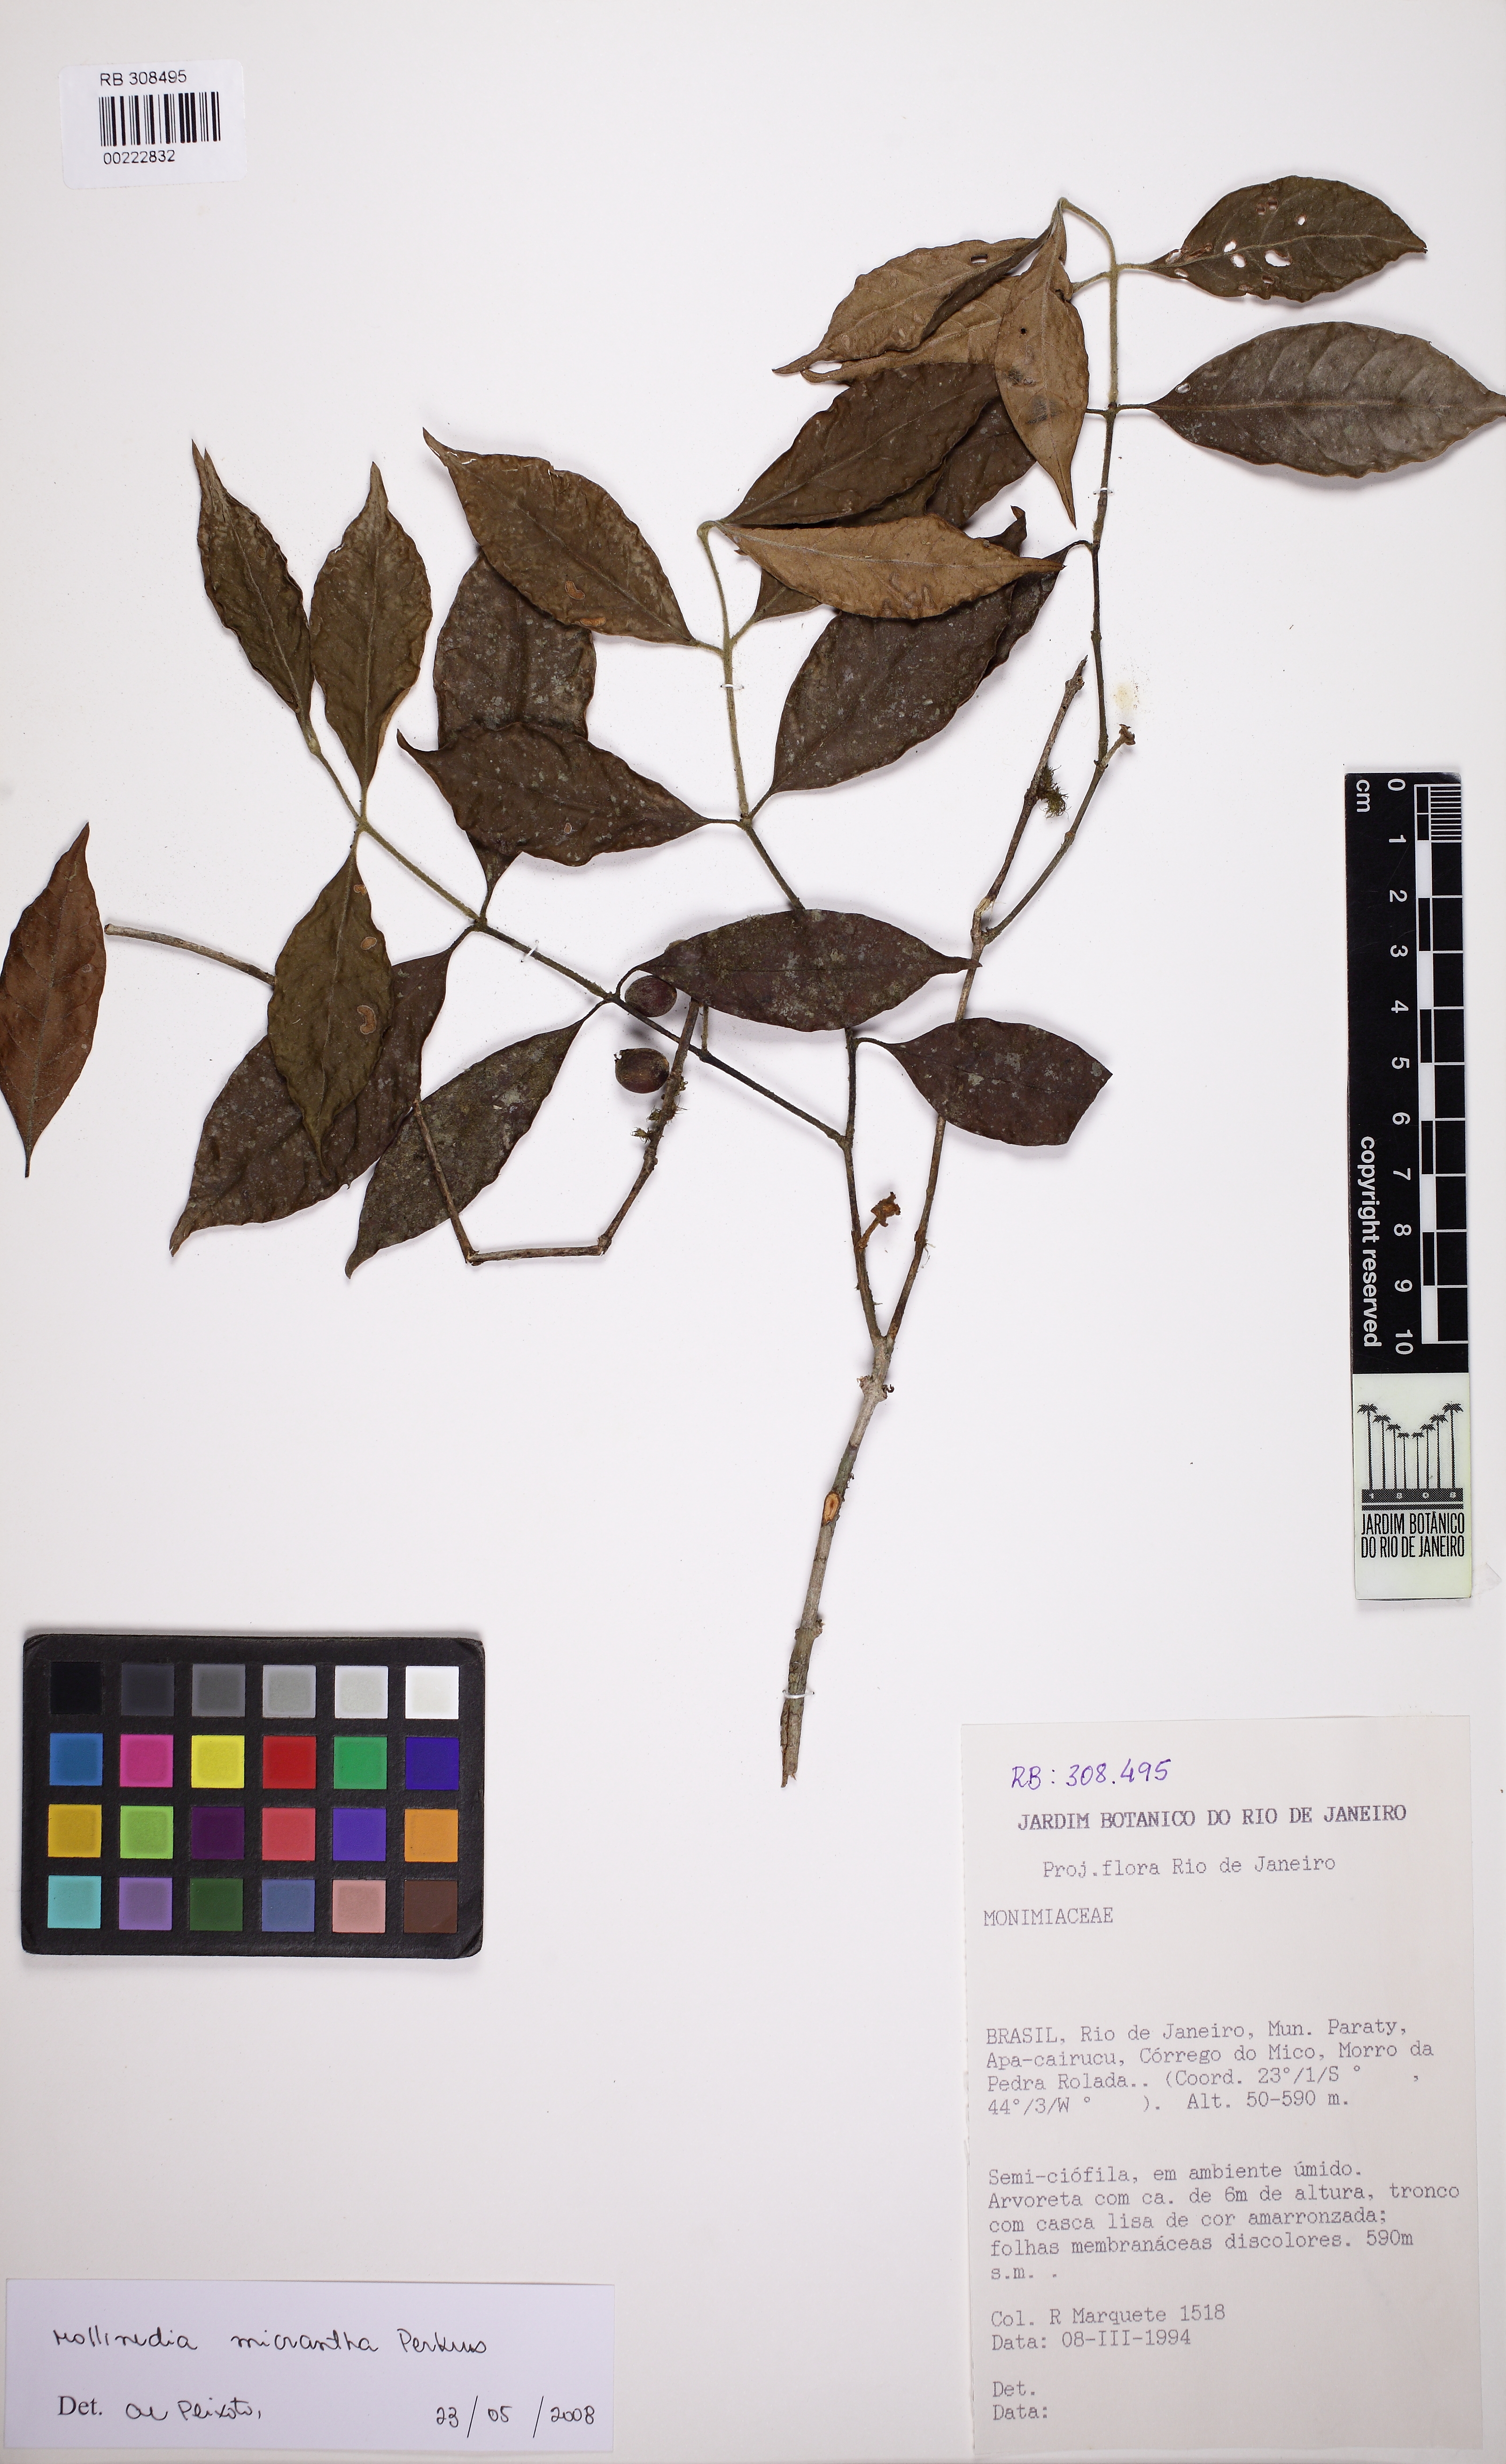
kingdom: Plantae
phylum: Tracheophyta
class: Magnoliopsida
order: Laurales
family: Monimiaceae
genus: Mollinedia
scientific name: Mollinedia elegans
